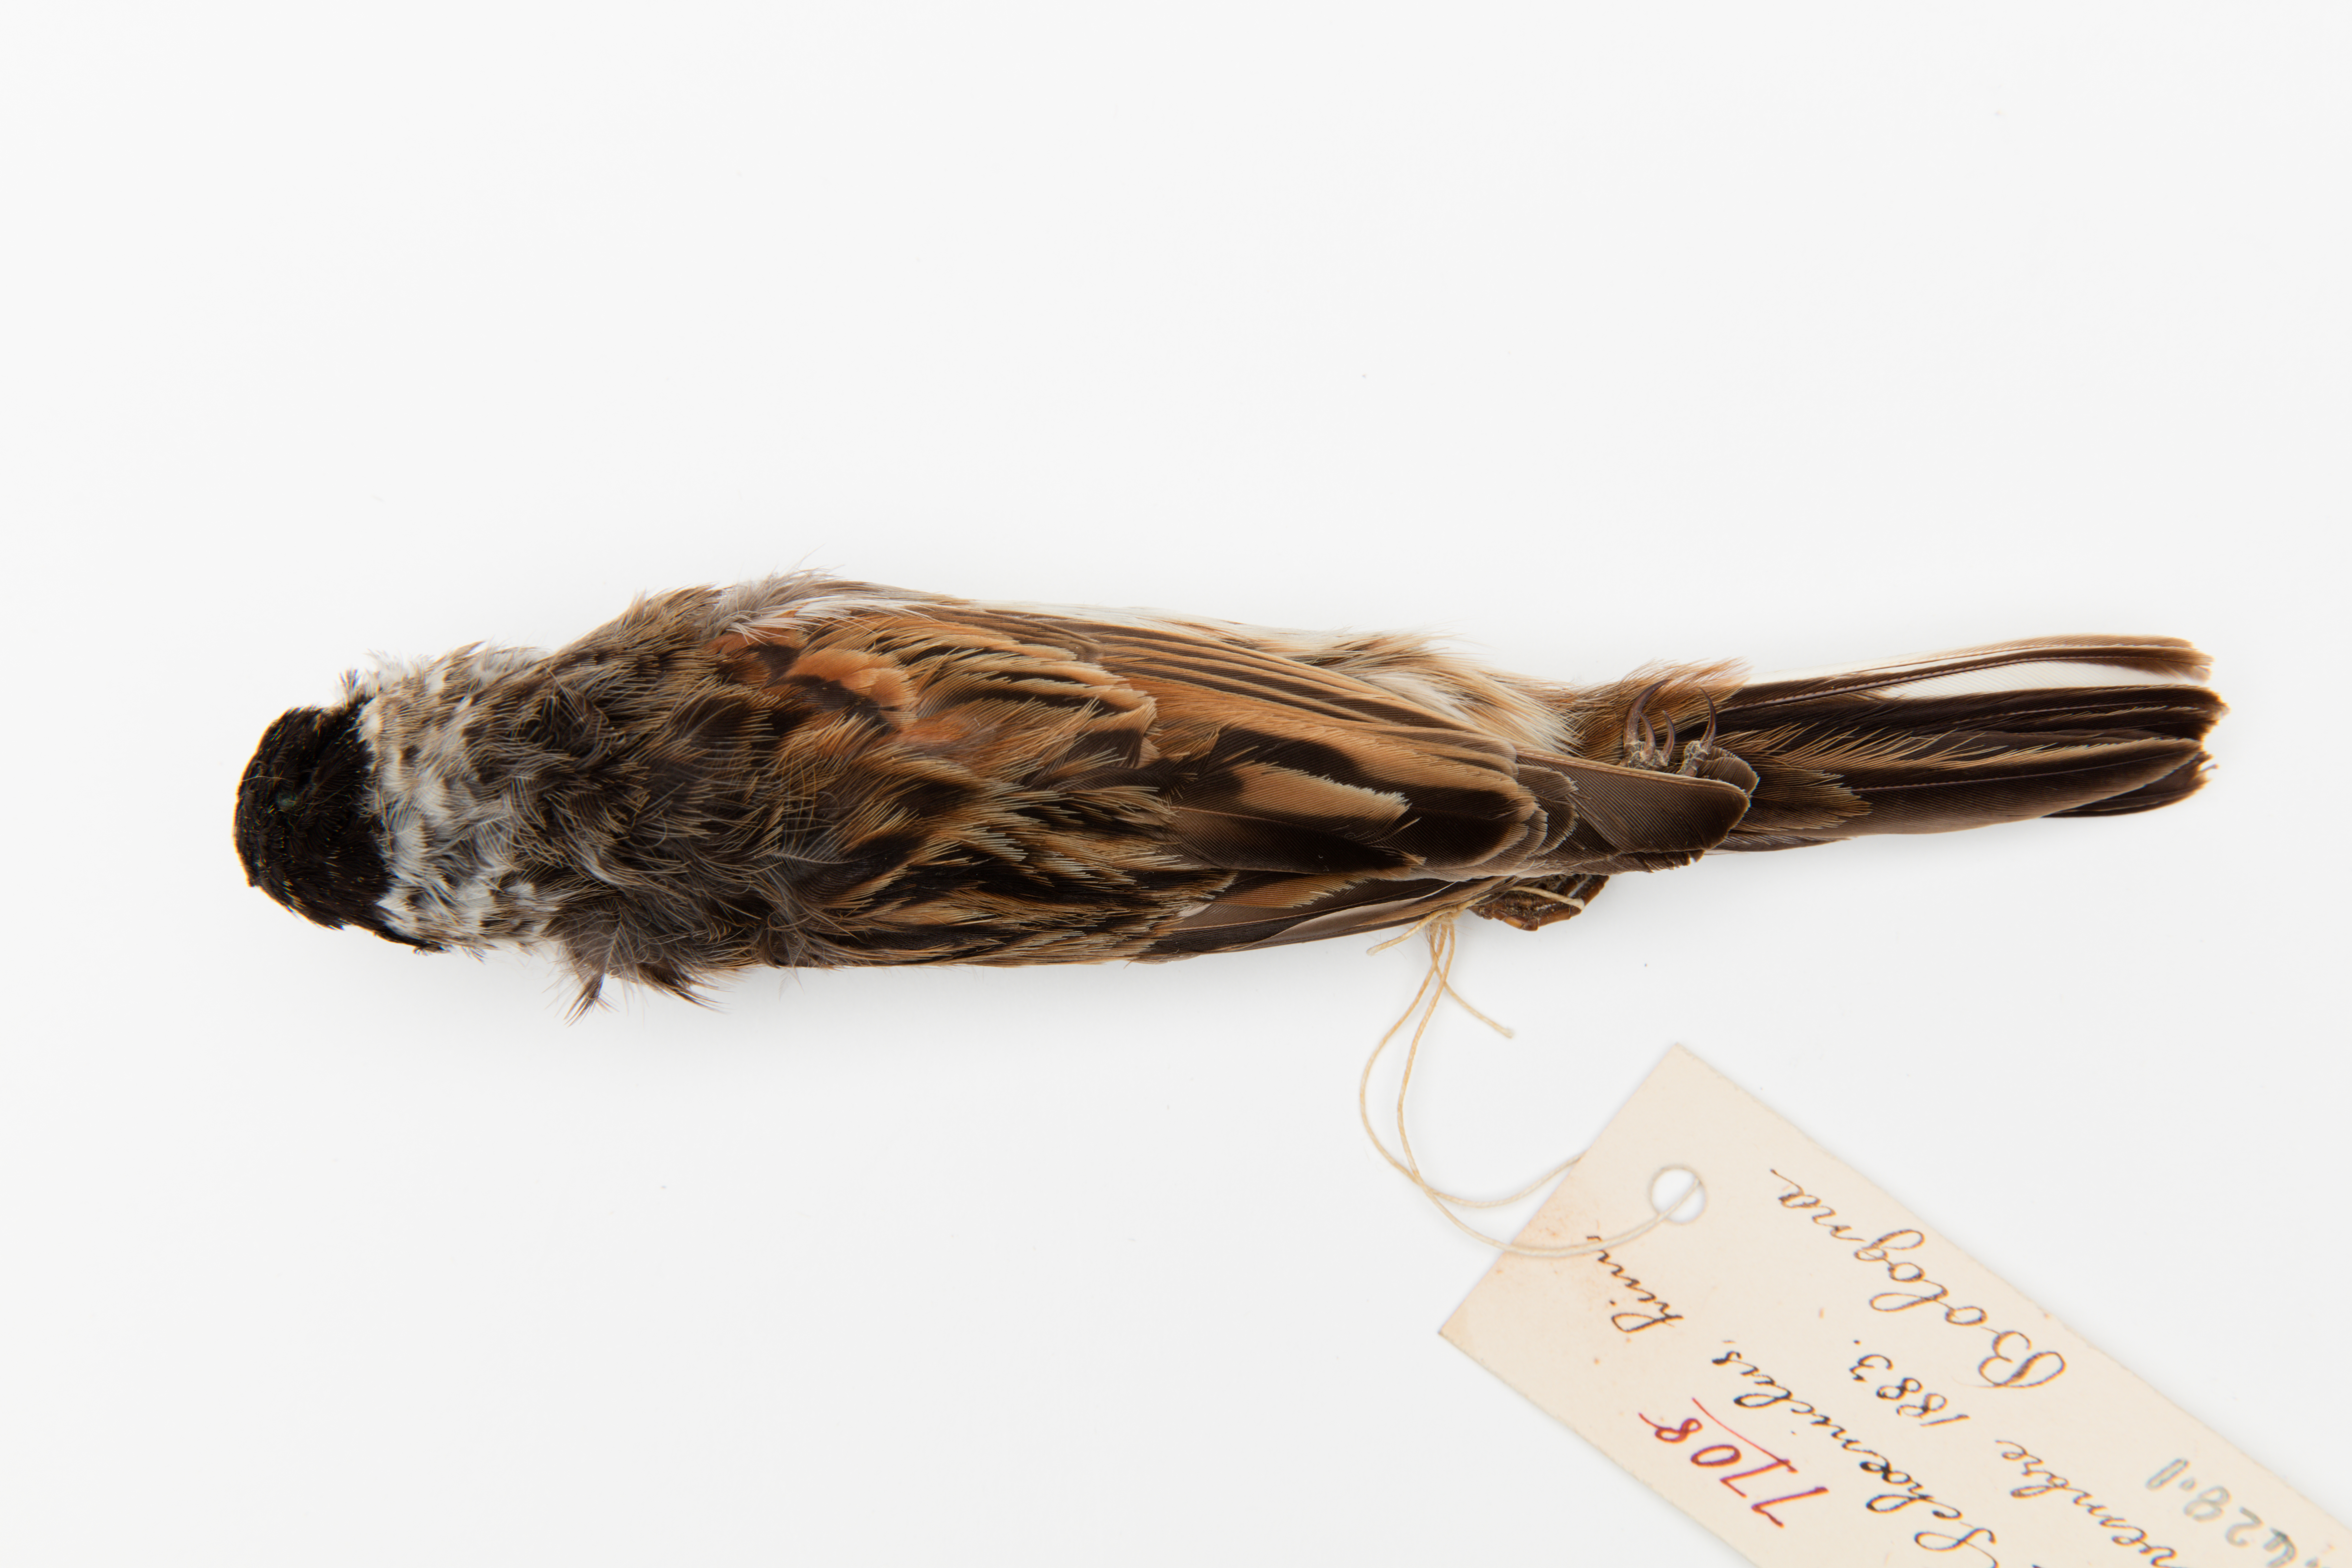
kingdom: Animalia
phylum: Chordata
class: Aves
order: Passeriformes
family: Emberizidae
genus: Emberiza
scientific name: Emberiza schoeniclus
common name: Reed bunting
